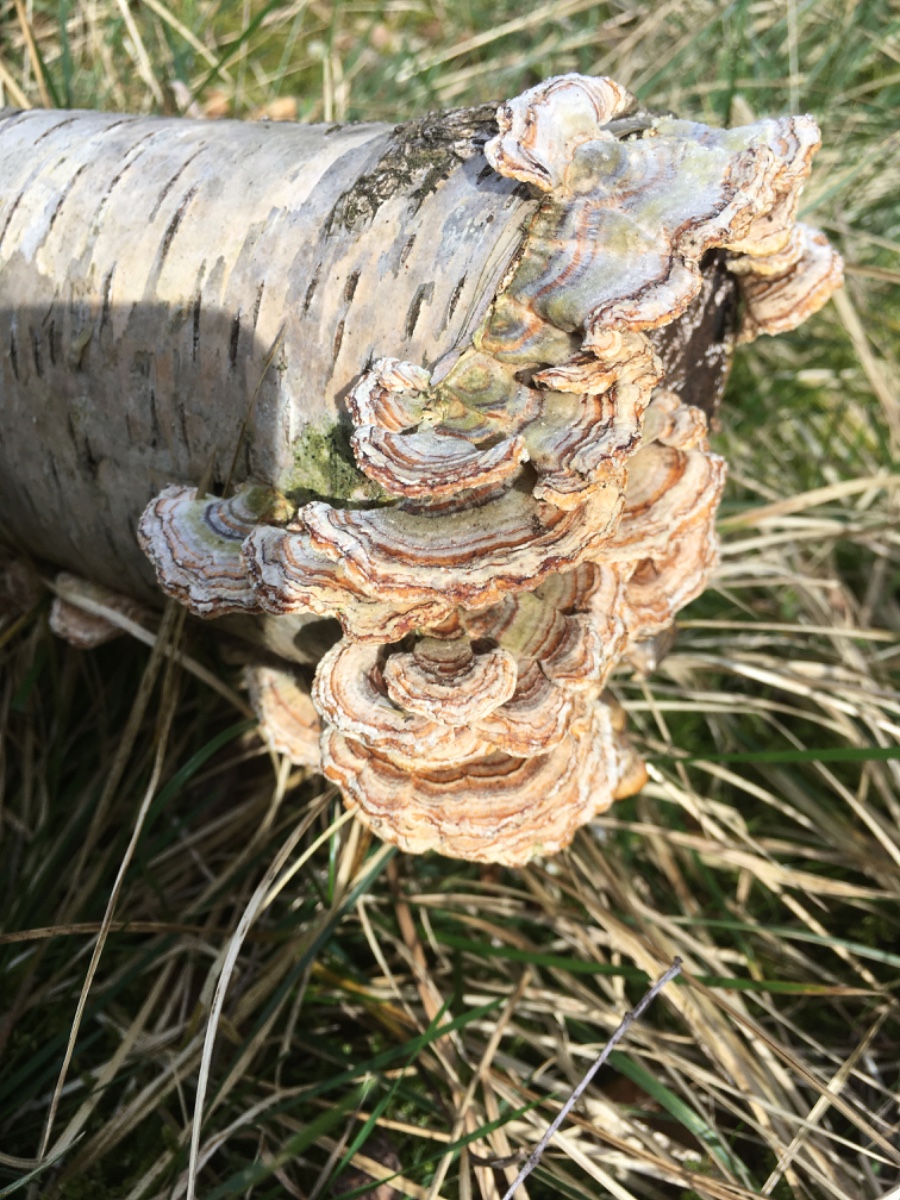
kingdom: Fungi
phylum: Basidiomycota
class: Agaricomycetes
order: Polyporales
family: Polyporaceae
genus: Trametes
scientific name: Trametes versicolor
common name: broget læderporesvamp
